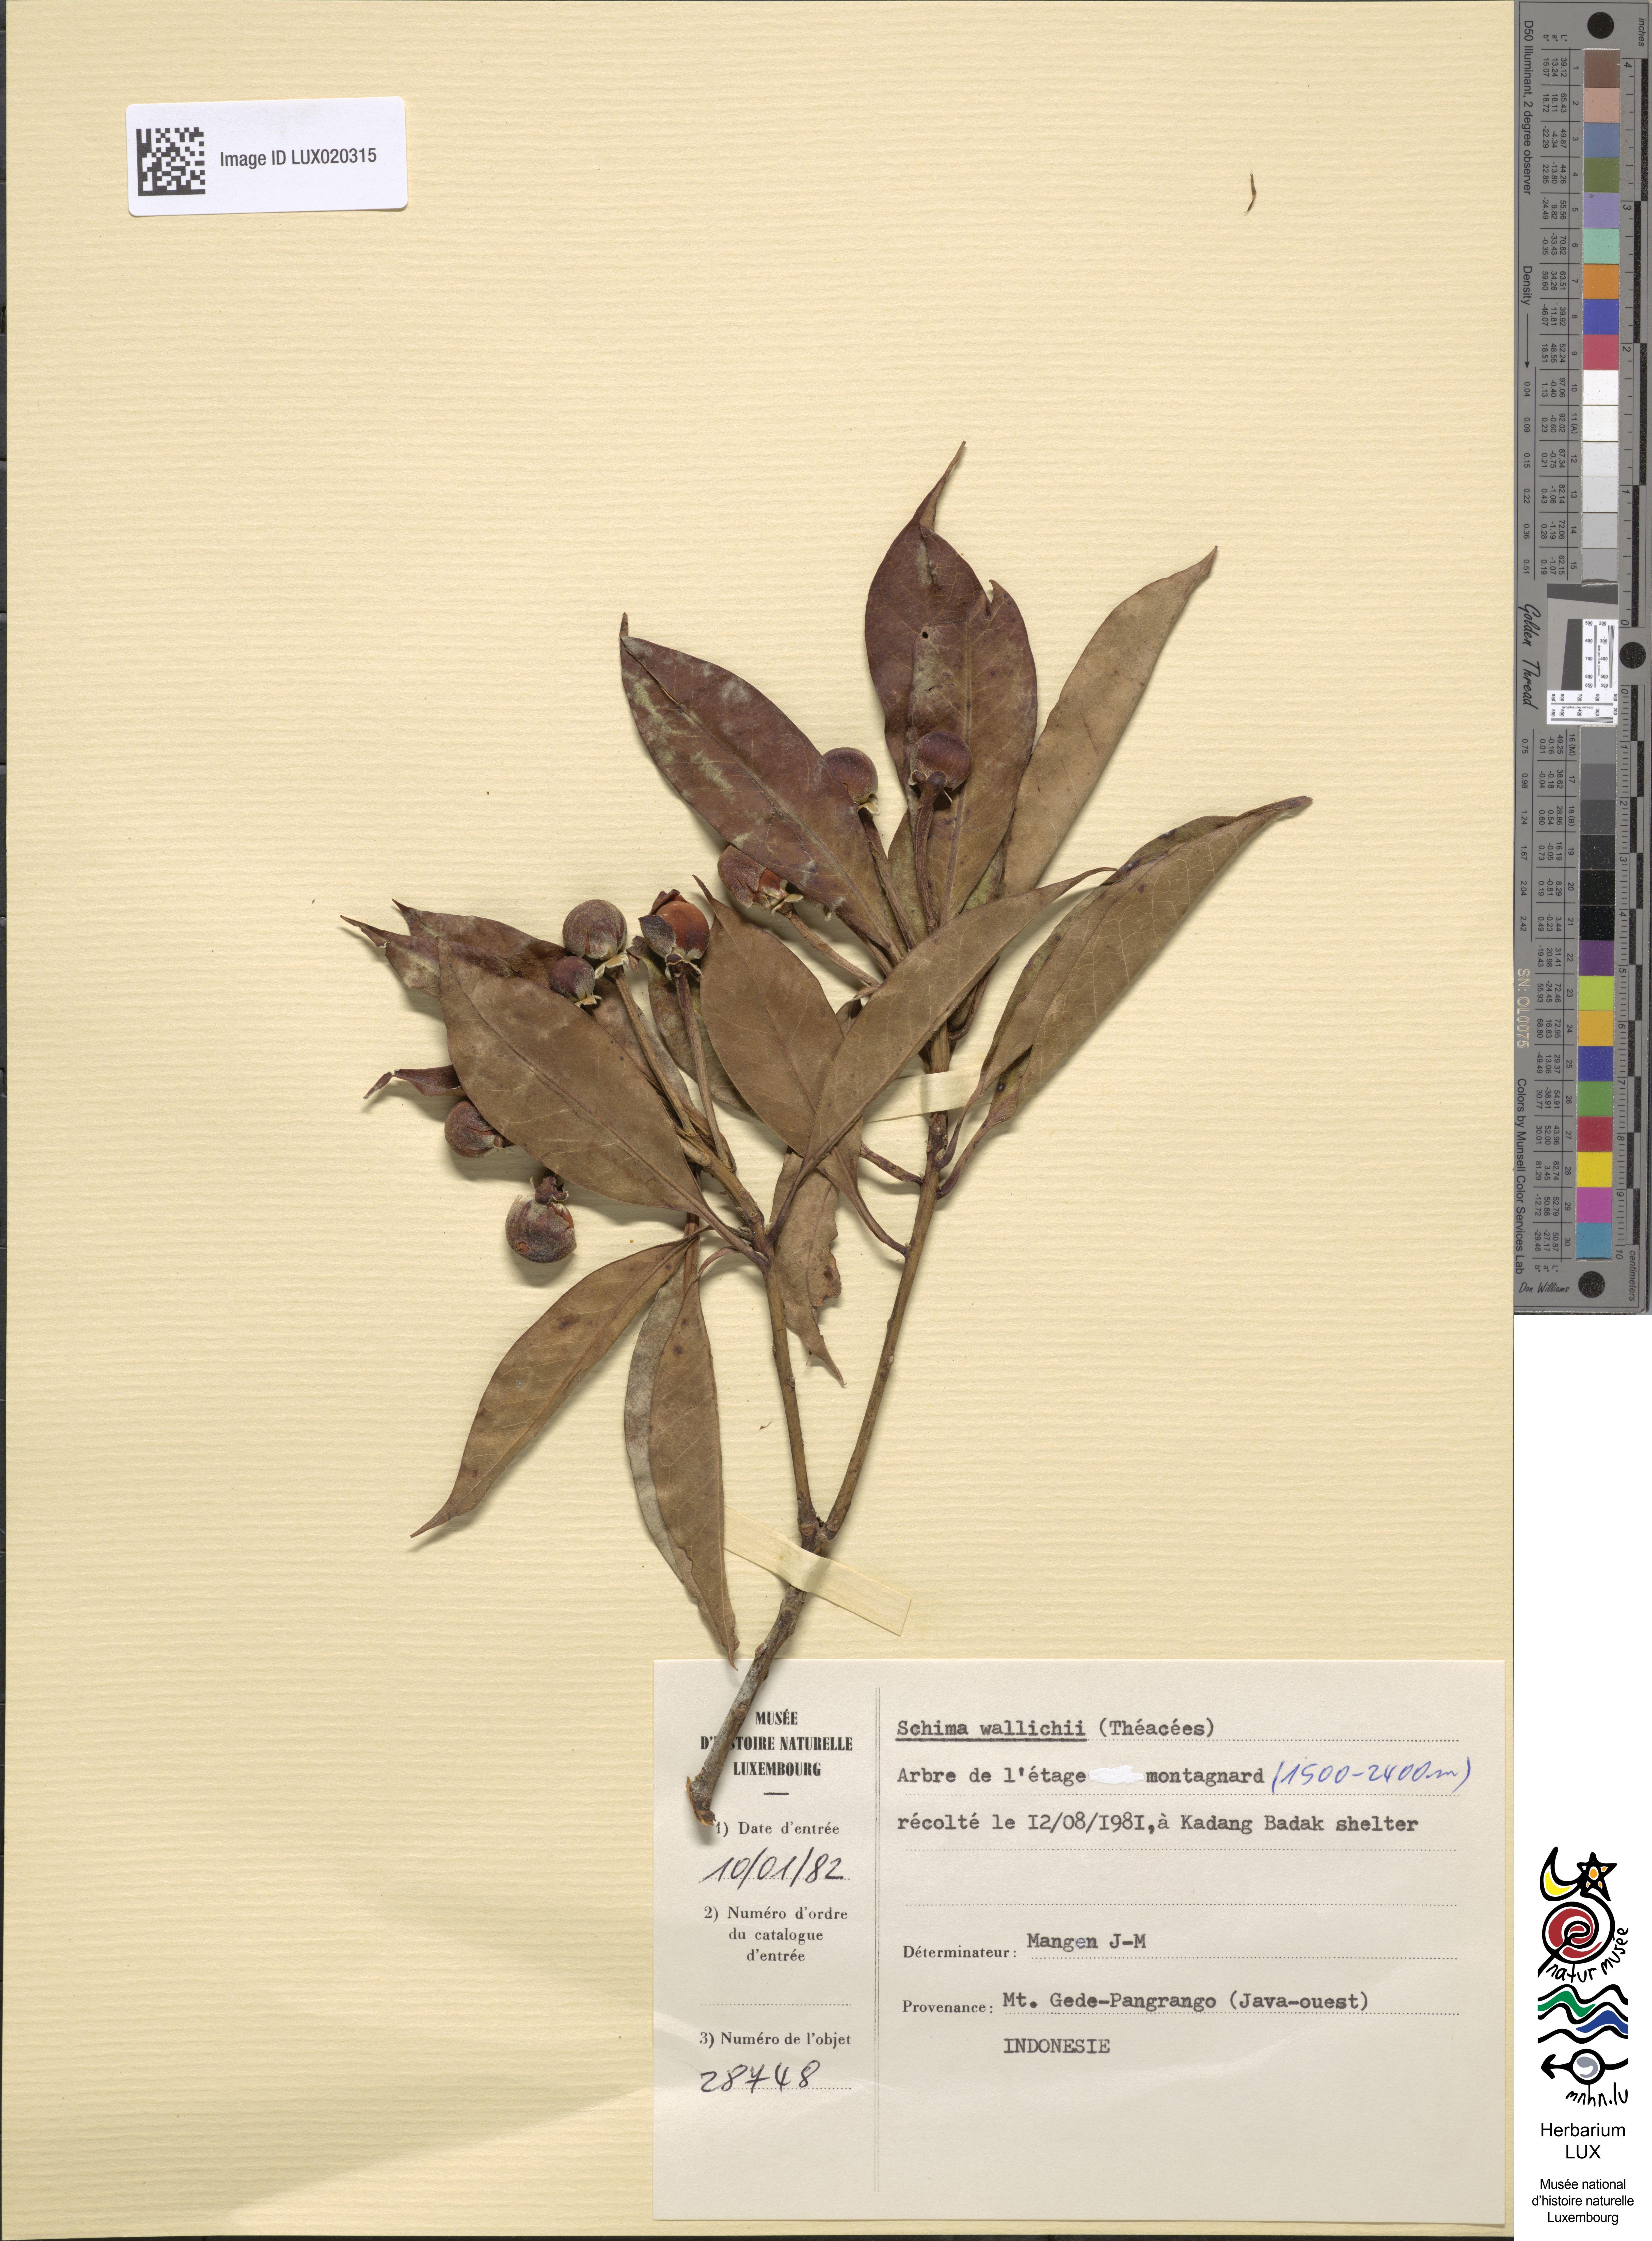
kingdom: Plantae
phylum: Tracheophyta
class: Magnoliopsida
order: Ericales
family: Theaceae
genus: Schima
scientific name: Schima wallichii
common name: Schima
